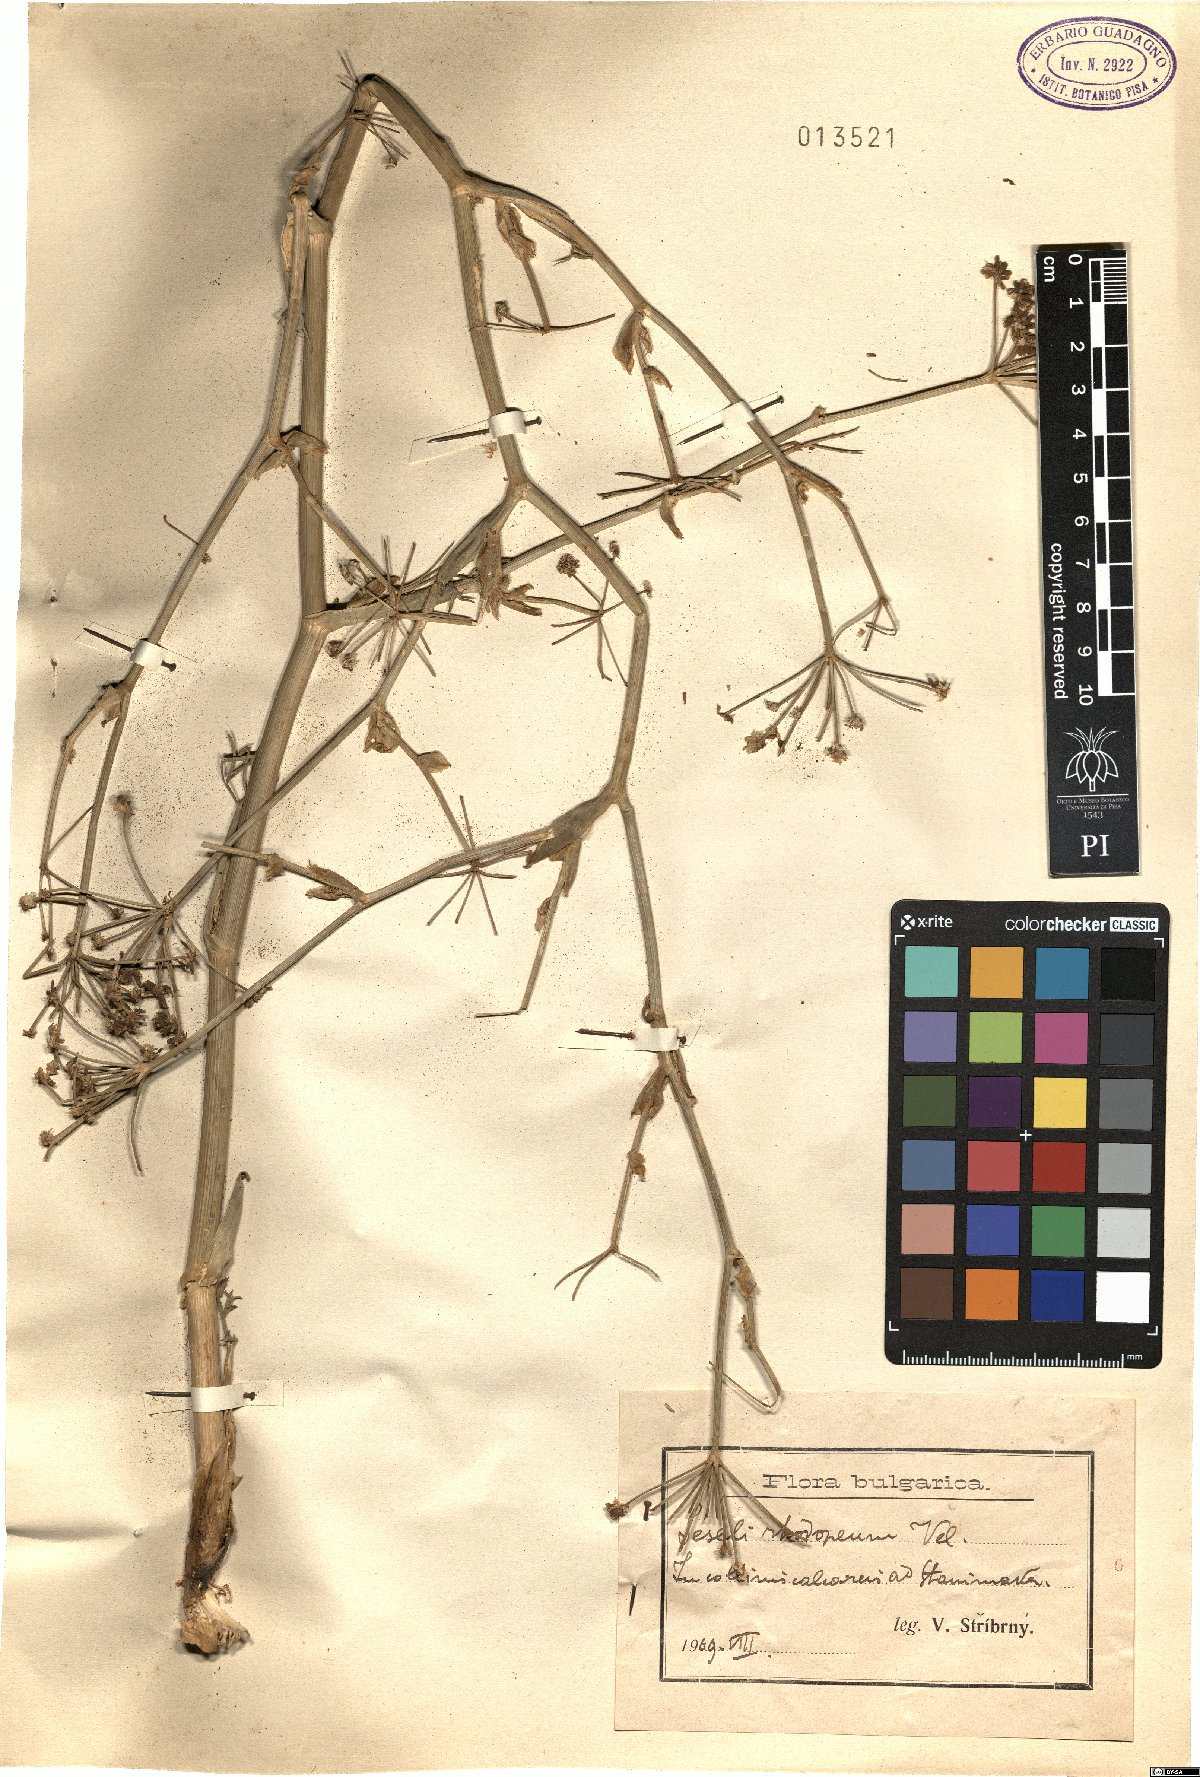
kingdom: Plantae
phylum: Tracheophyta
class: Magnoliopsida
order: Apiales
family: Apiaceae
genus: Seseli
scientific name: Seseli rhodopeum
